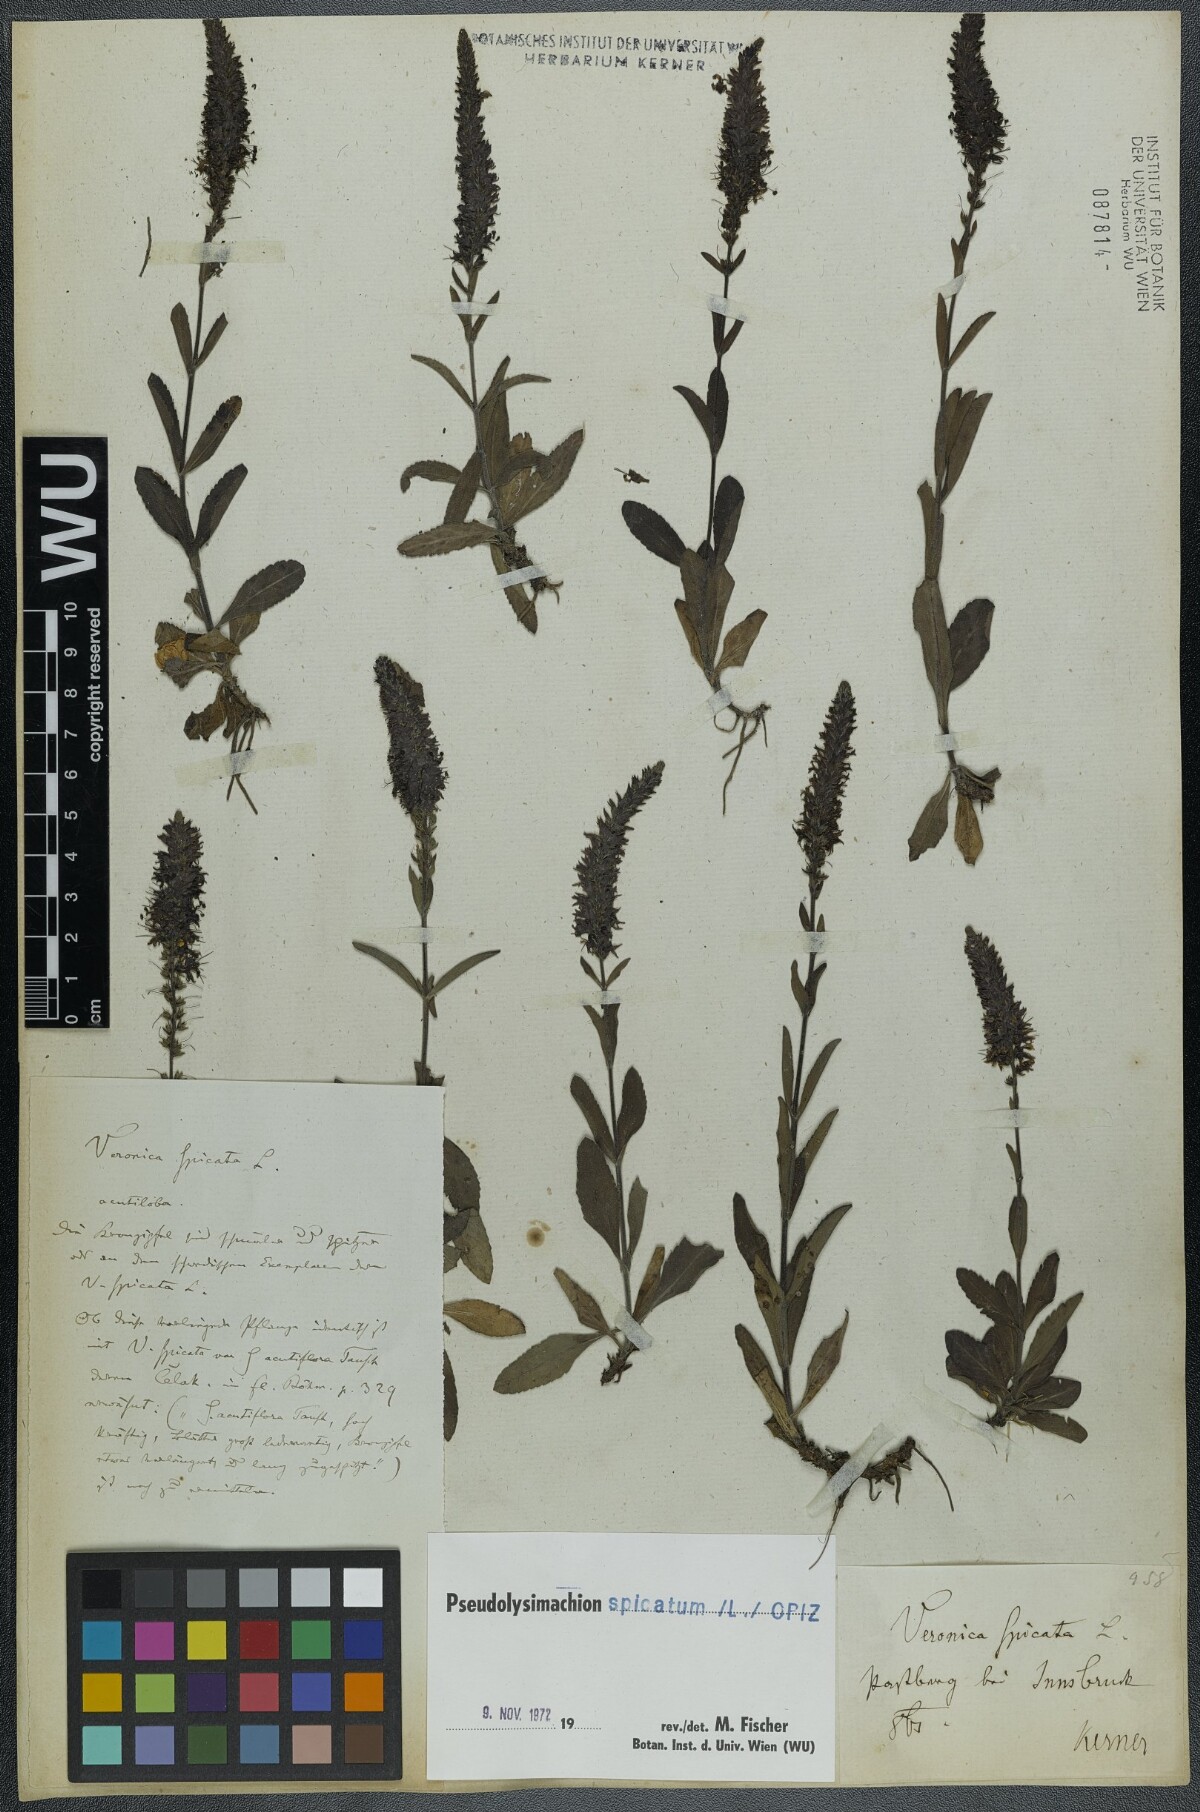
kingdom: Plantae
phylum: Tracheophyta
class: Magnoliopsida
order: Lamiales
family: Plantaginaceae
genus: Veronica
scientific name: Veronica spicata
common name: Spiked speedwell
